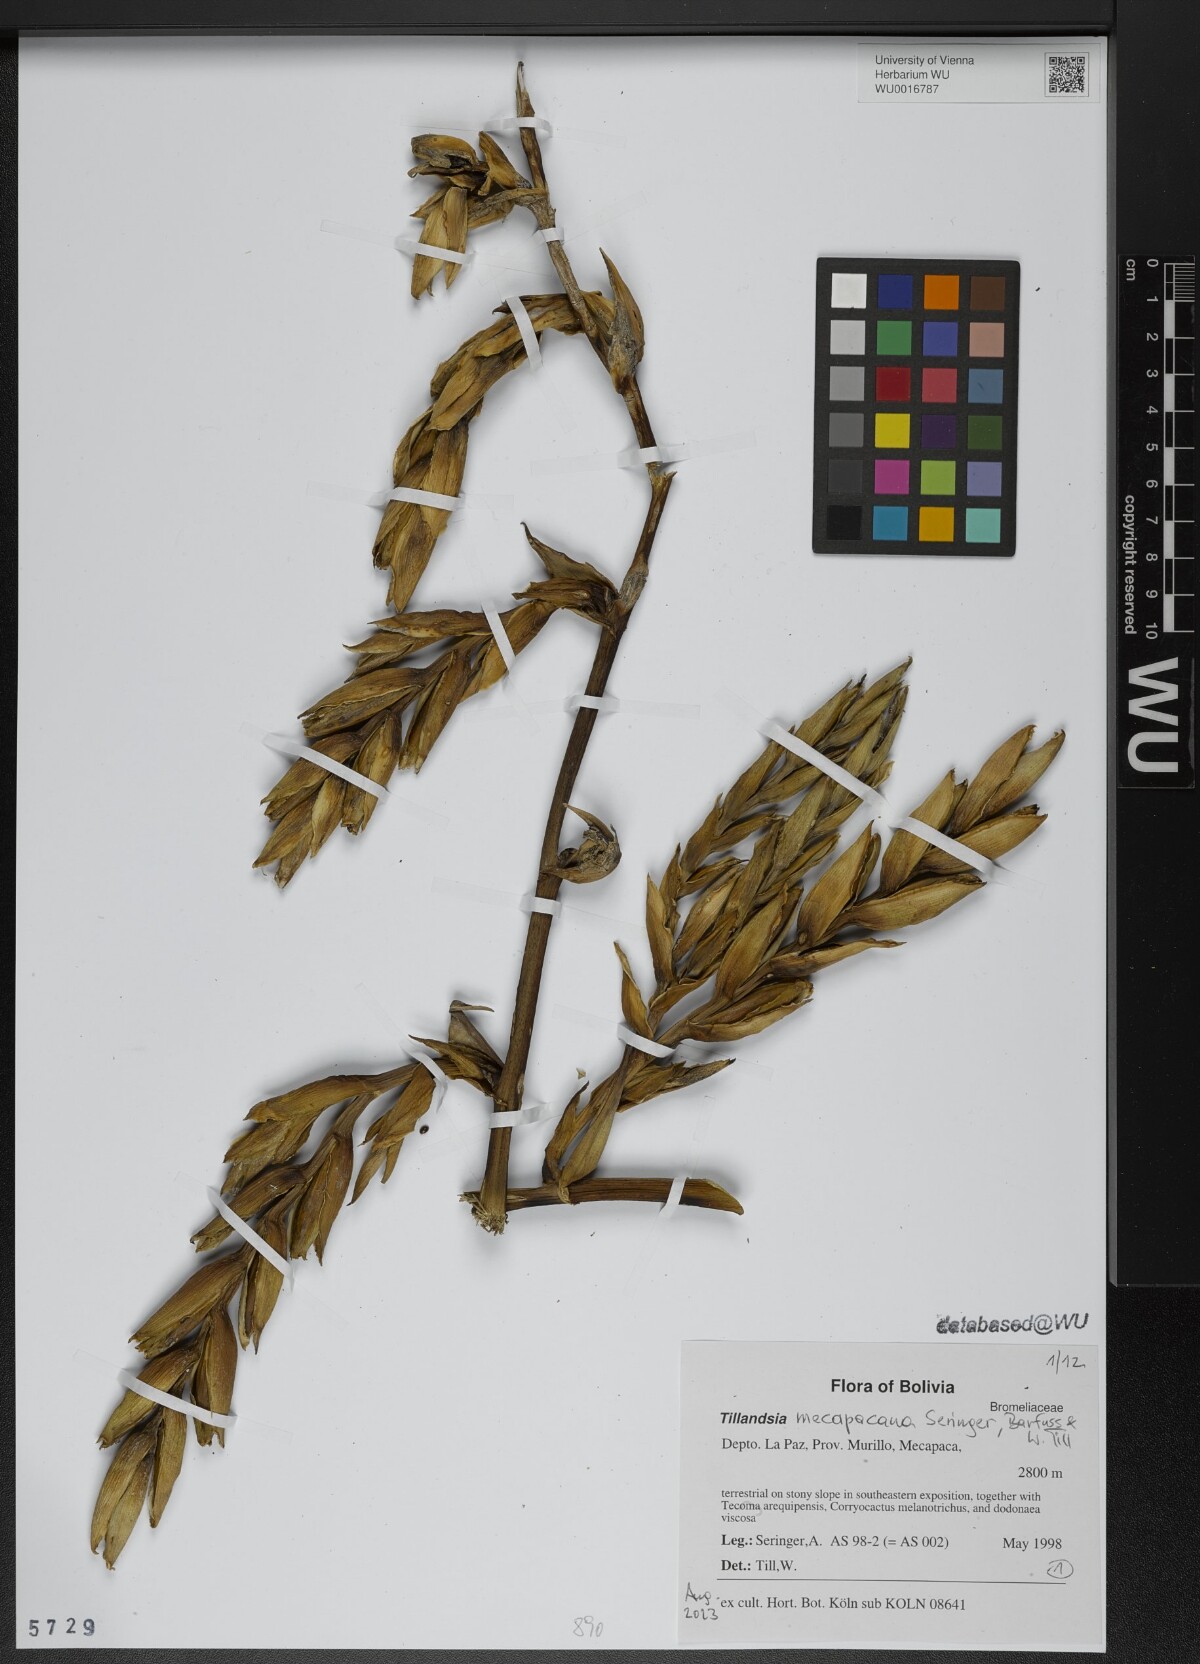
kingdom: Plantae
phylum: Tracheophyta
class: Liliopsida
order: Poales
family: Bromeliaceae
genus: Tillandsia
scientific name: Tillandsia
